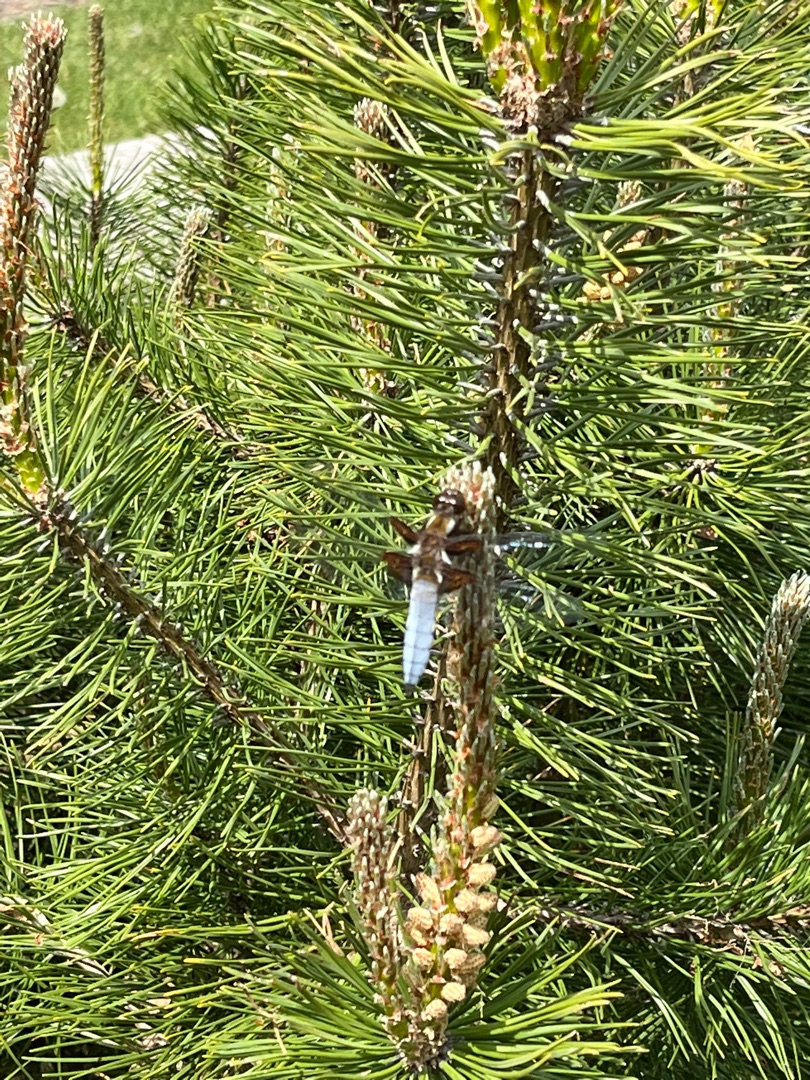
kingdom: Animalia
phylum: Arthropoda
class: Insecta
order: Odonata
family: Libellulidae
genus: Libellula
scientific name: Libellula depressa
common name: Blå libel
